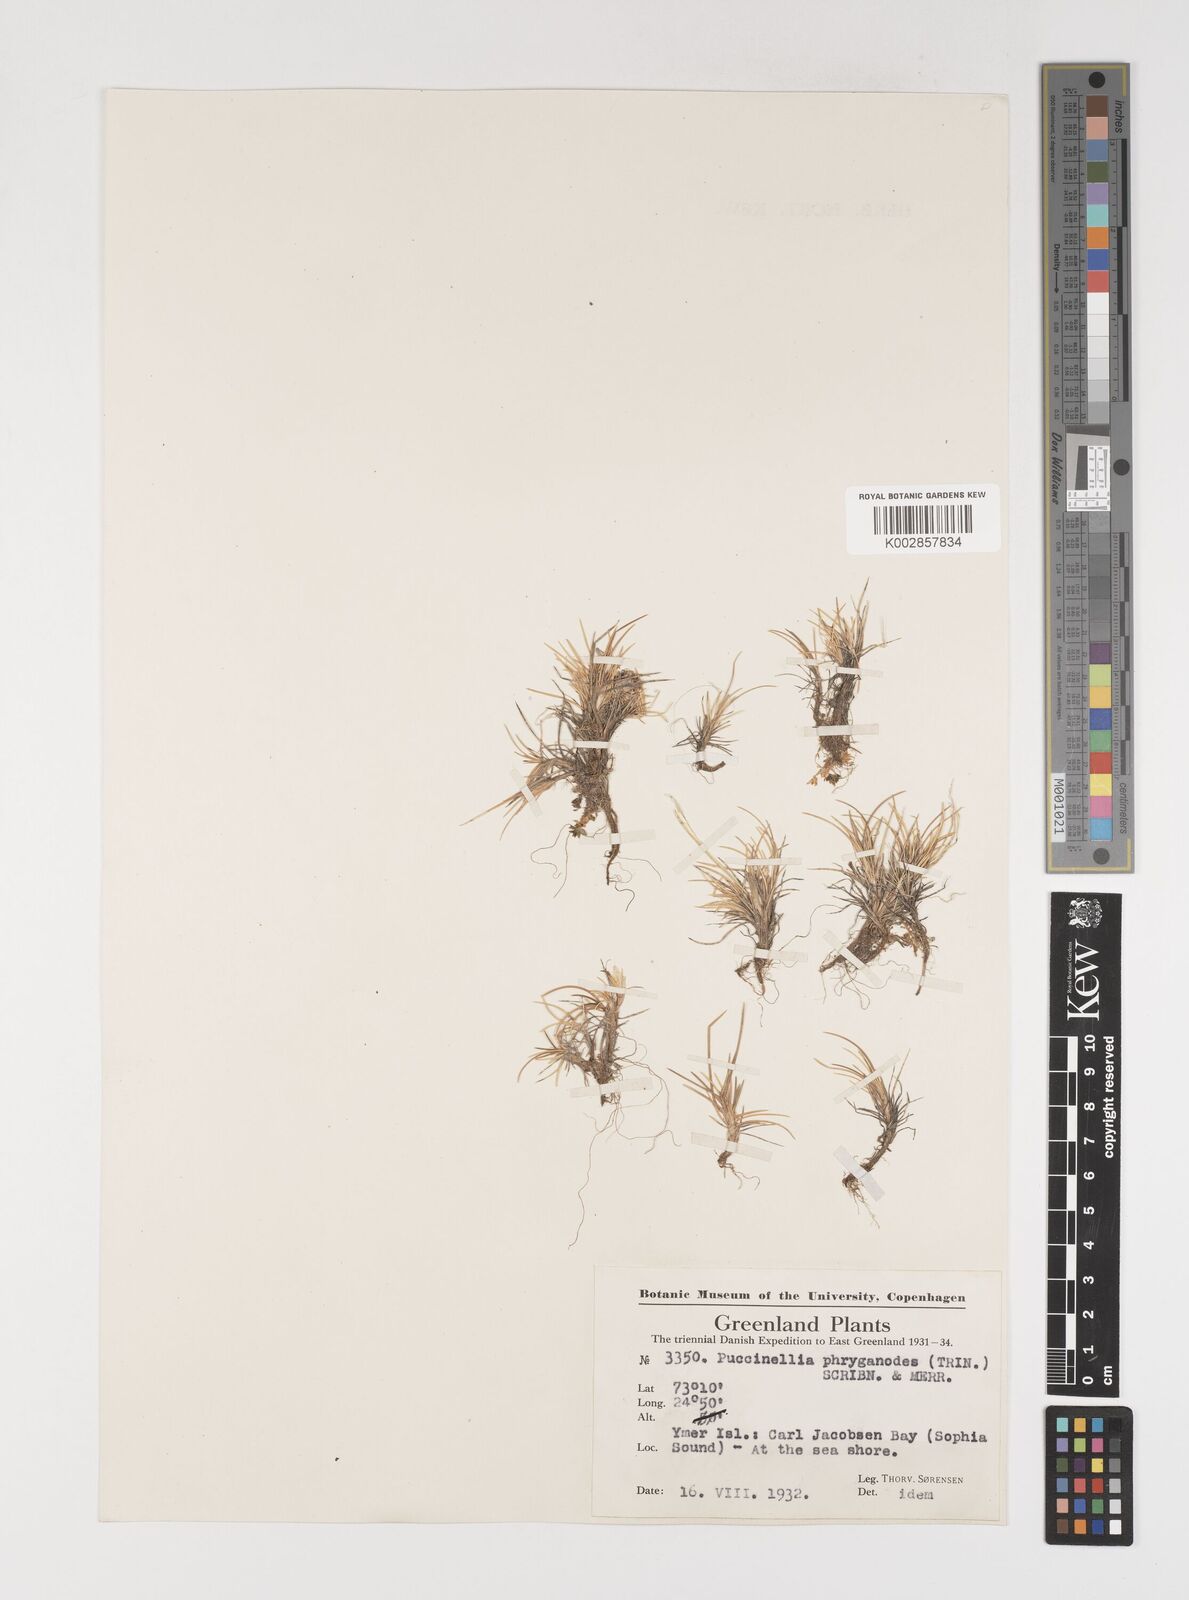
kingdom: Plantae
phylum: Tracheophyta
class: Liliopsida
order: Poales
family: Poaceae
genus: Puccinellia
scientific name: Puccinellia phryganodes
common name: Creeping alkaligrass
